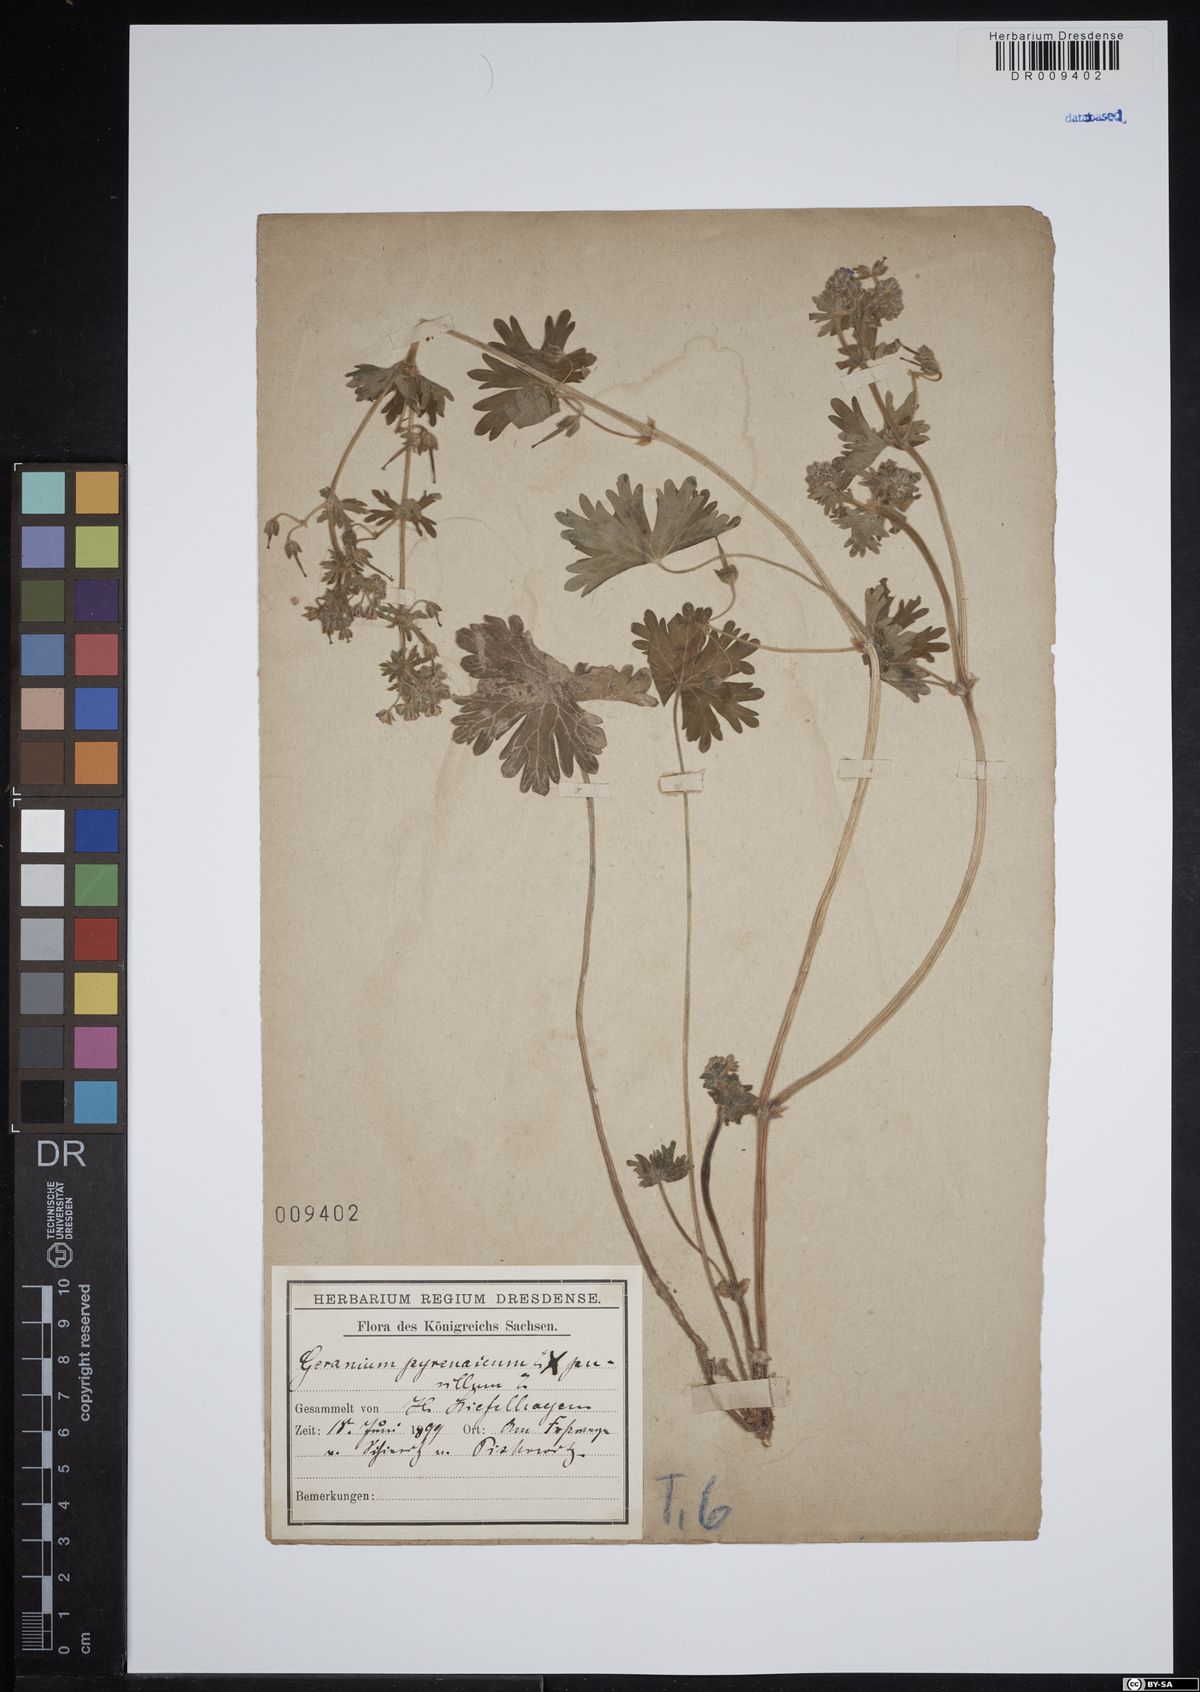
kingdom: Plantae
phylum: Tracheophyta
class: Magnoliopsida
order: Geraniales
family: Geraniaceae
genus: Geranium
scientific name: Geranium pusillum
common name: Small geranium
